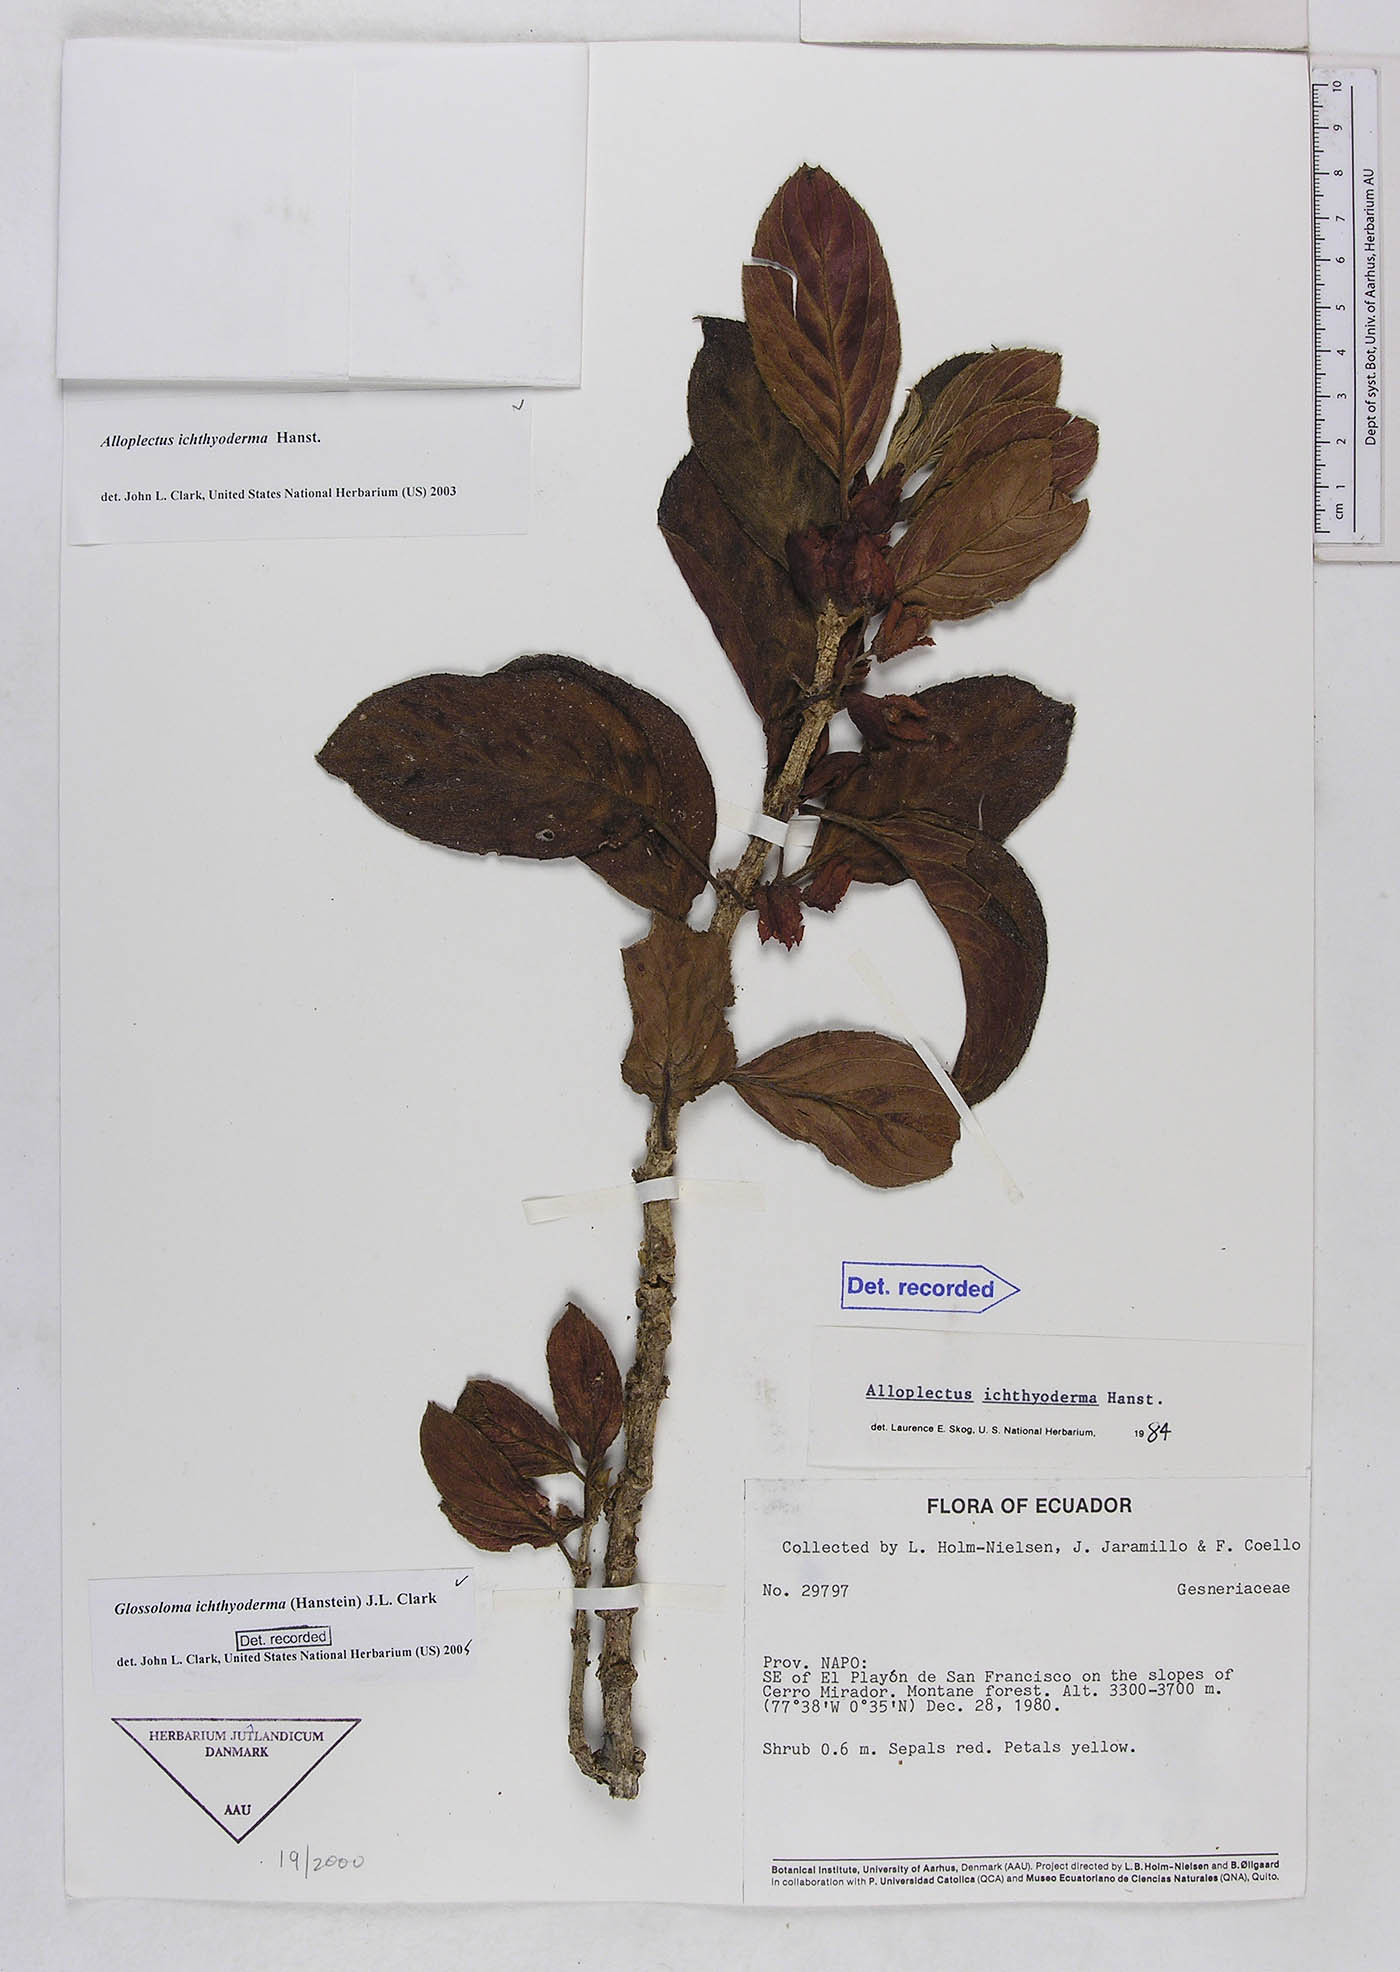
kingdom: Plantae
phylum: Tracheophyta
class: Magnoliopsida
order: Lamiales
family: Gesneriaceae
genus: Glossoloma
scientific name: Glossoloma ichthyoderma
